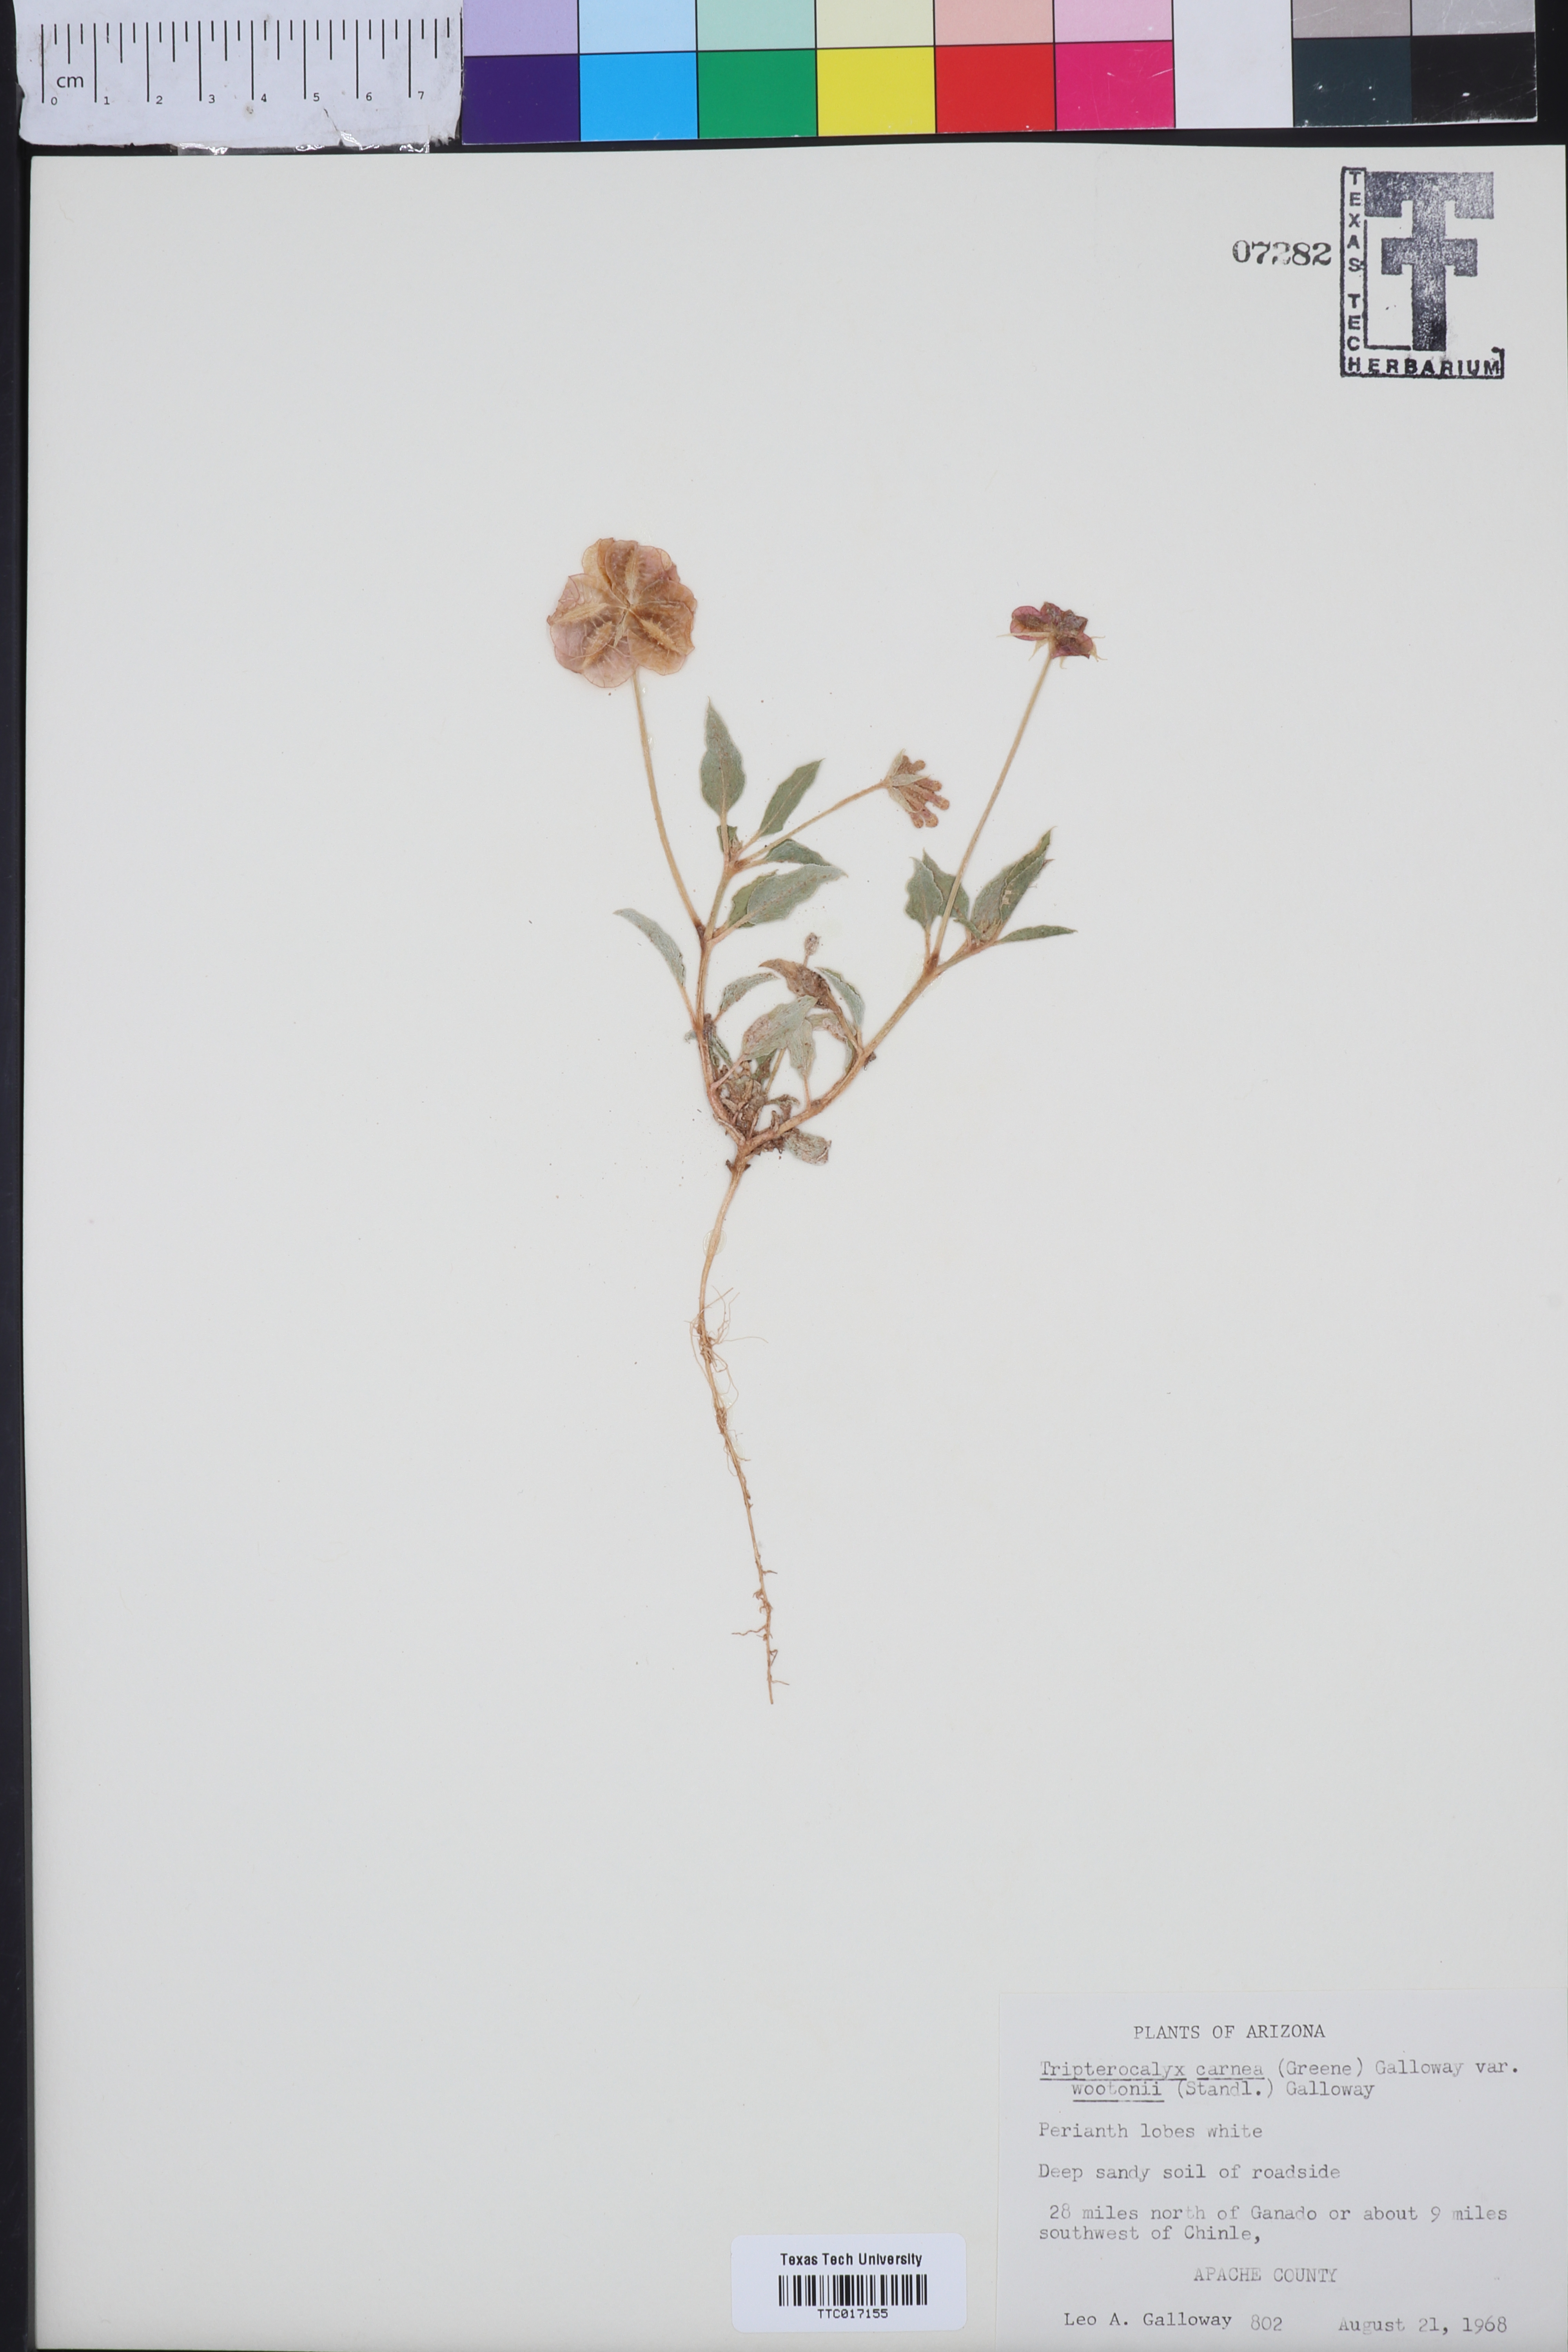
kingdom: Plantae
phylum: Tracheophyta
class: Magnoliopsida
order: Caryophyllales
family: Nyctaginaceae
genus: Tripterocalyx
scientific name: Tripterocalyx wootonii
